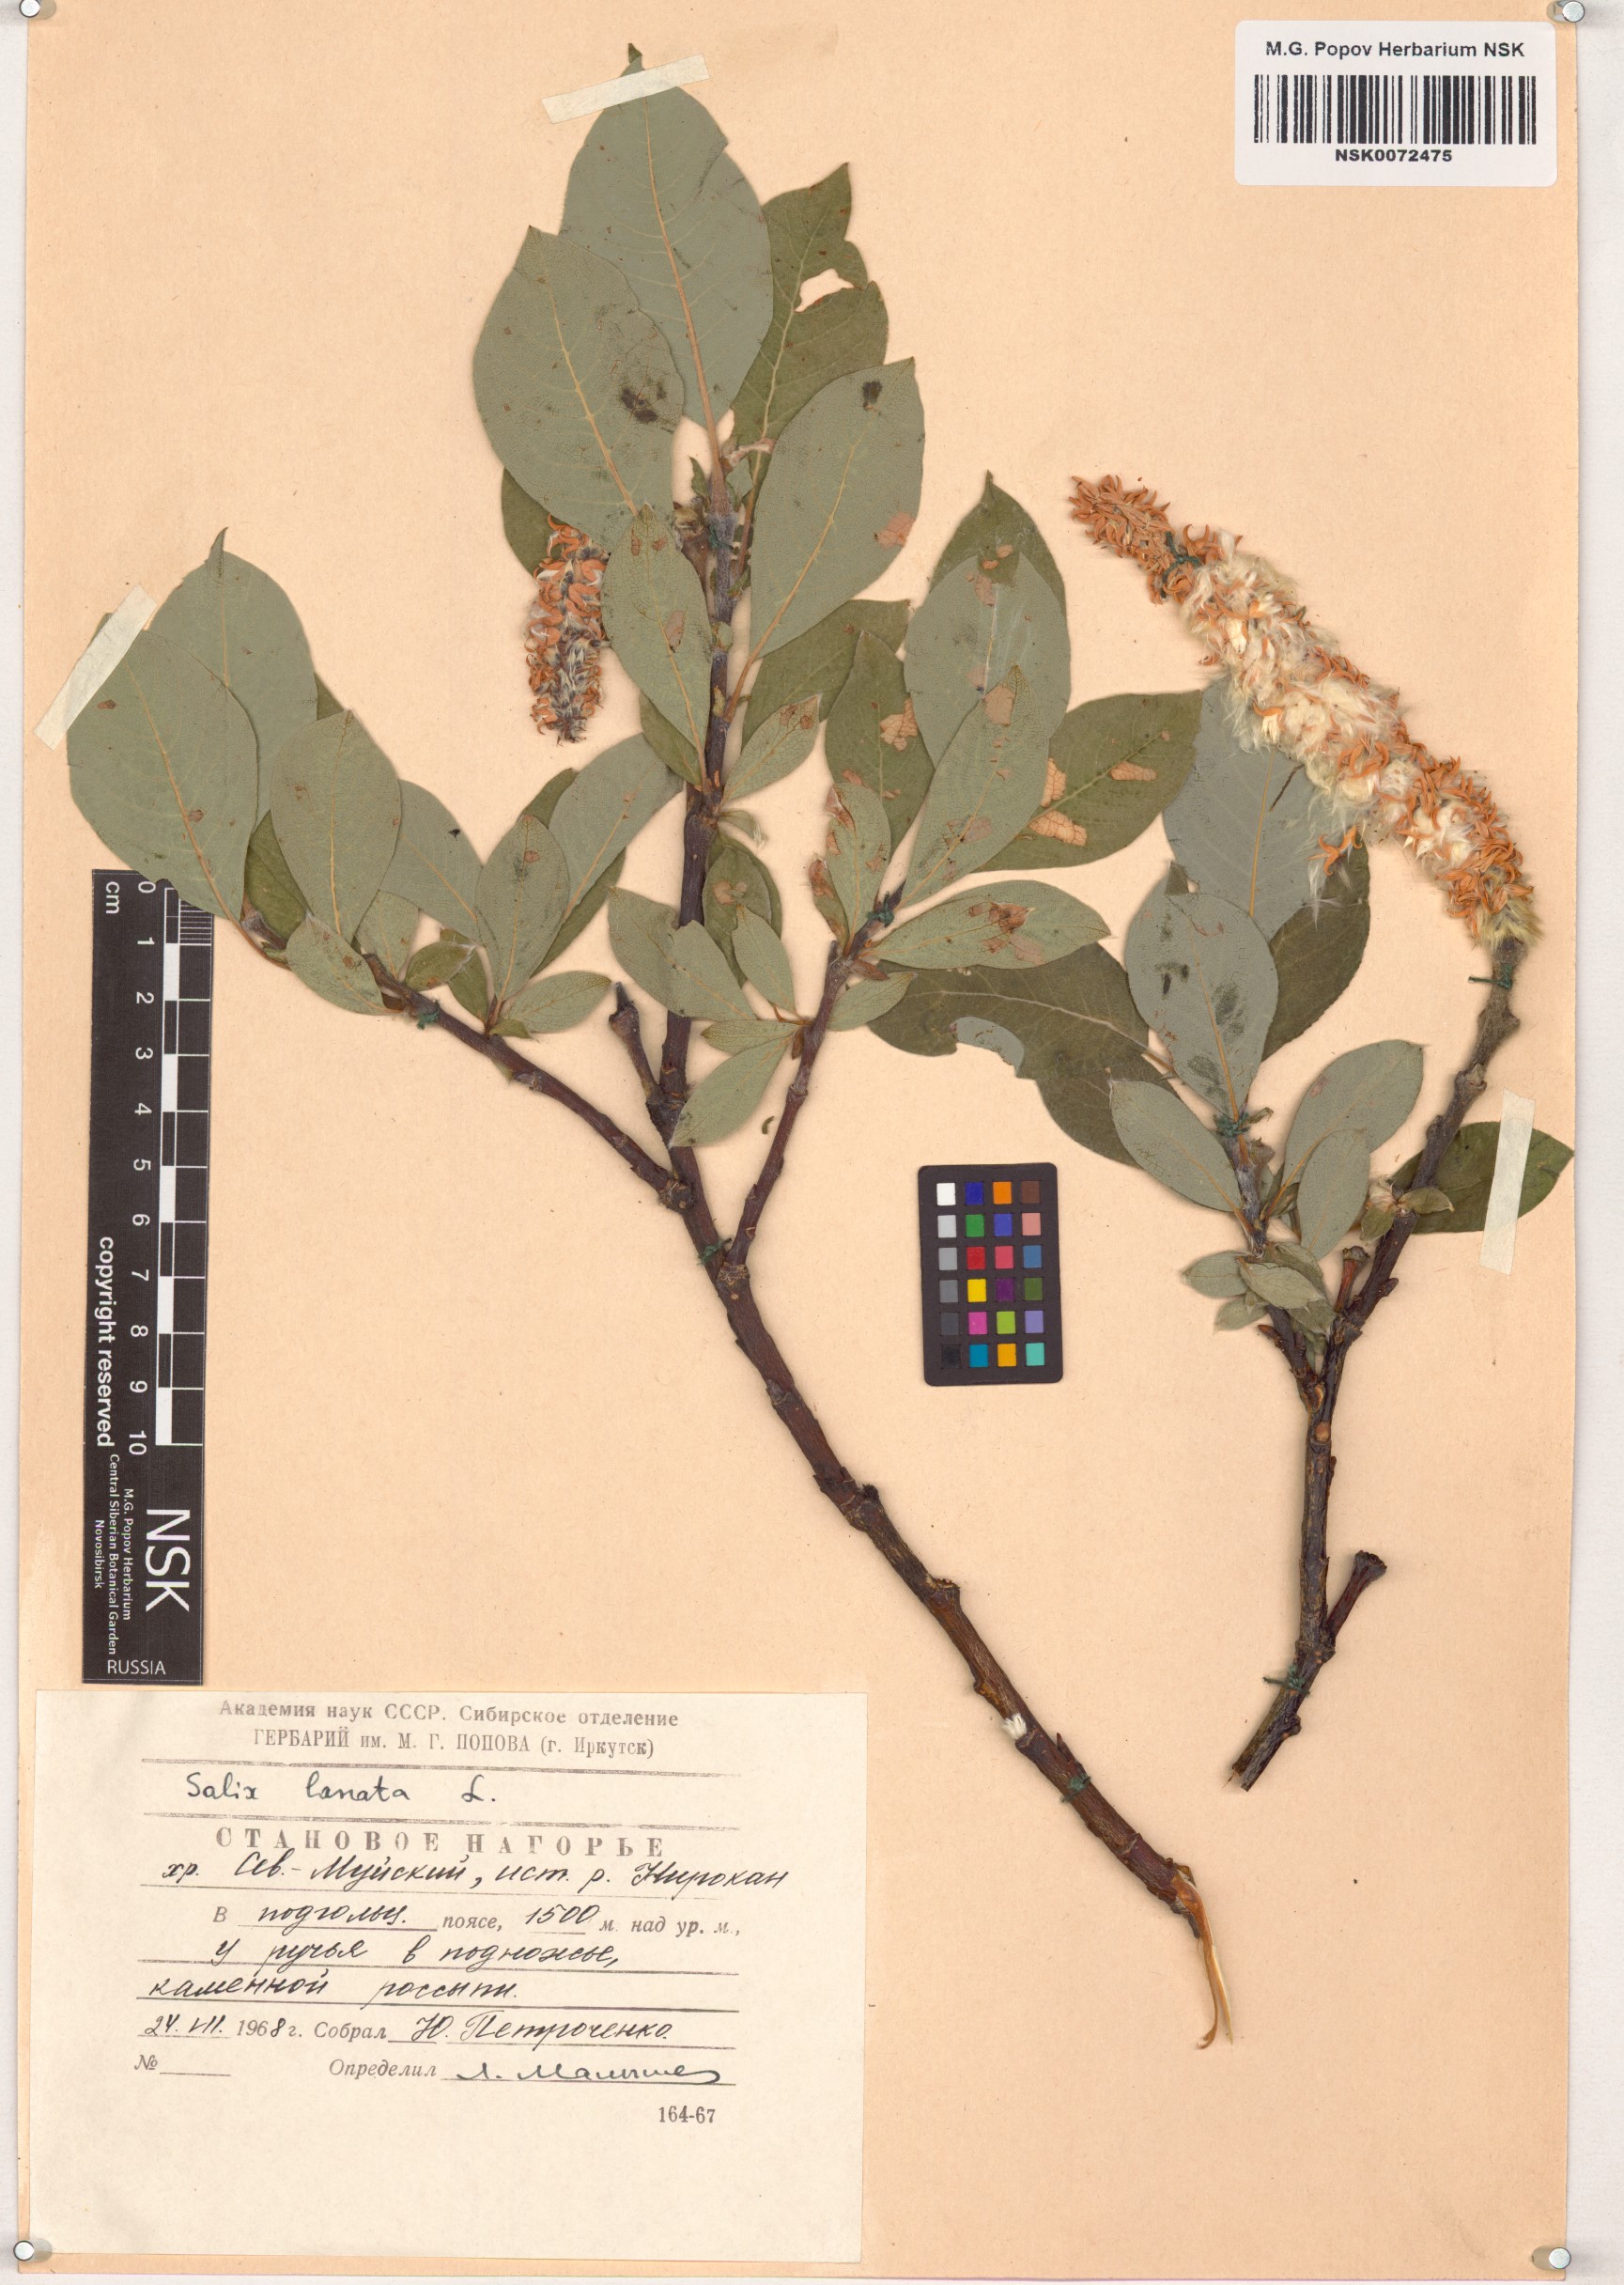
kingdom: Plantae
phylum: Tracheophyta
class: Magnoliopsida
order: Malpighiales
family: Salicaceae
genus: Salix
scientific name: Salix lanata
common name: Woolly willow
